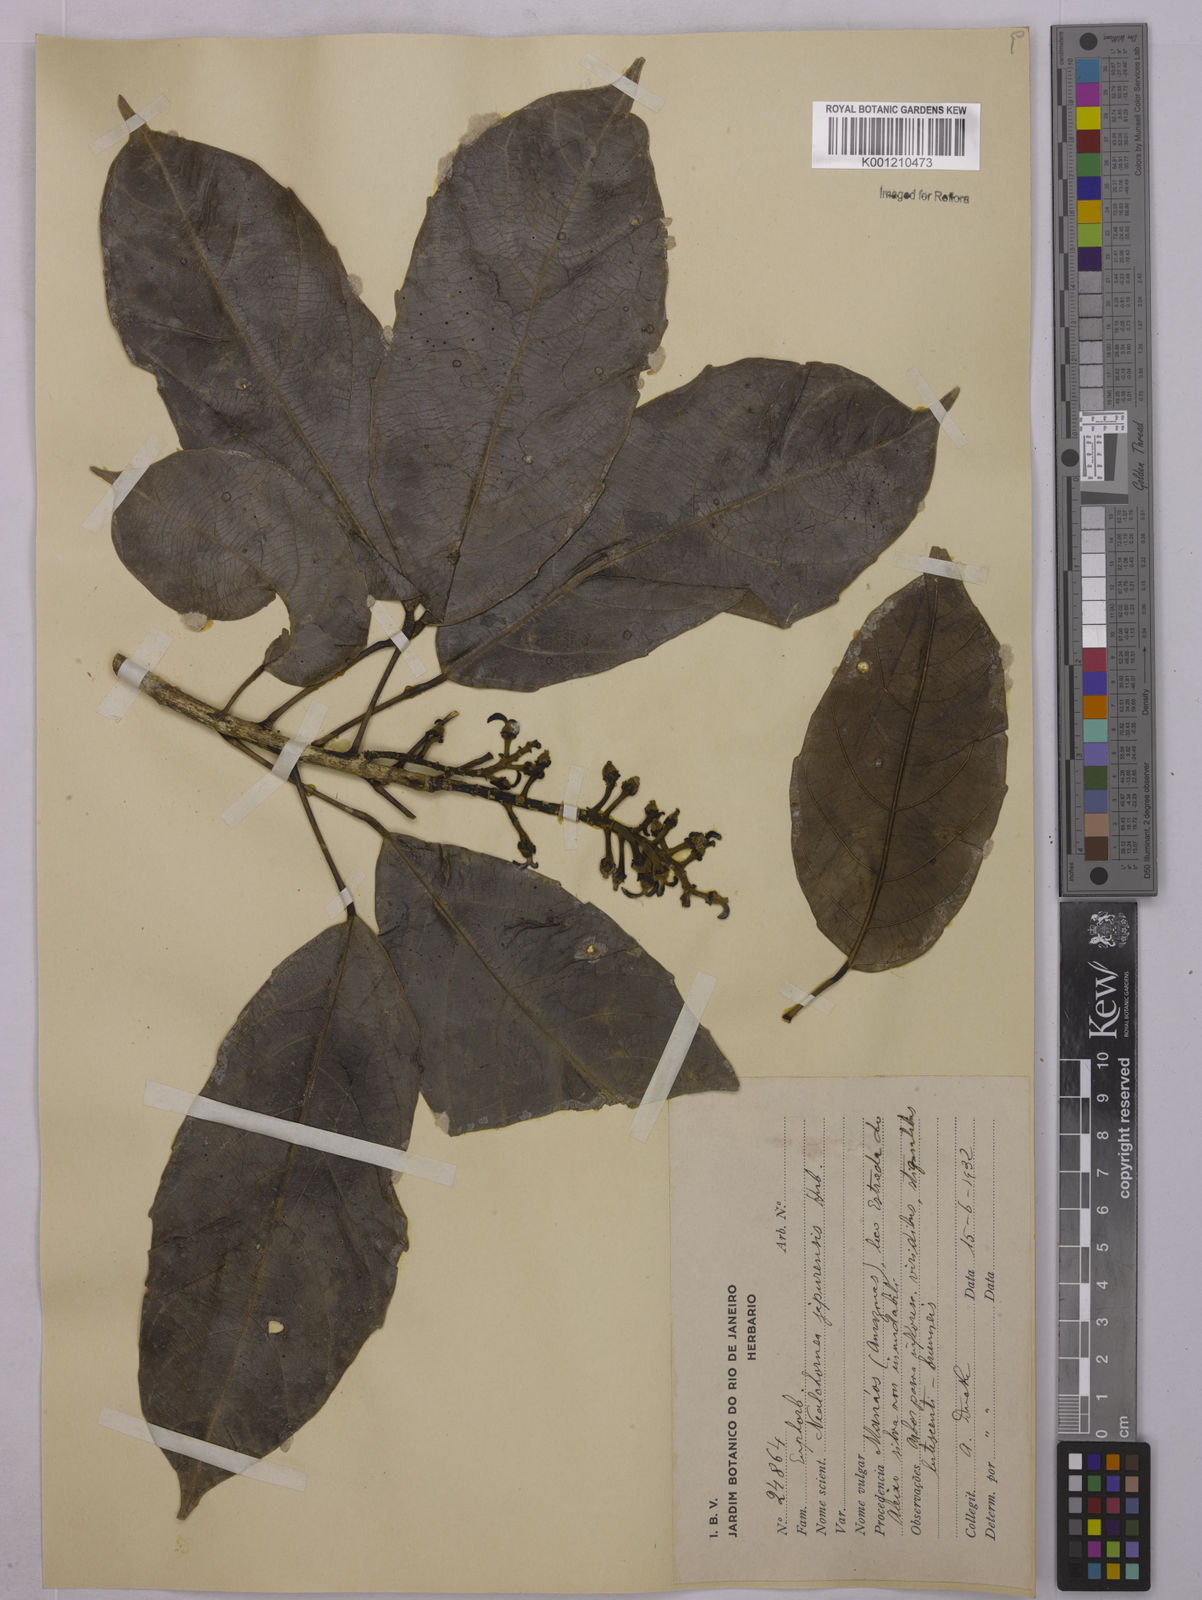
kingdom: Plantae
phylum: Tracheophyta
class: Magnoliopsida
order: Malpighiales
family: Euphorbiaceae
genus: Nealchornea
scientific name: Nealchornea yapurensis
